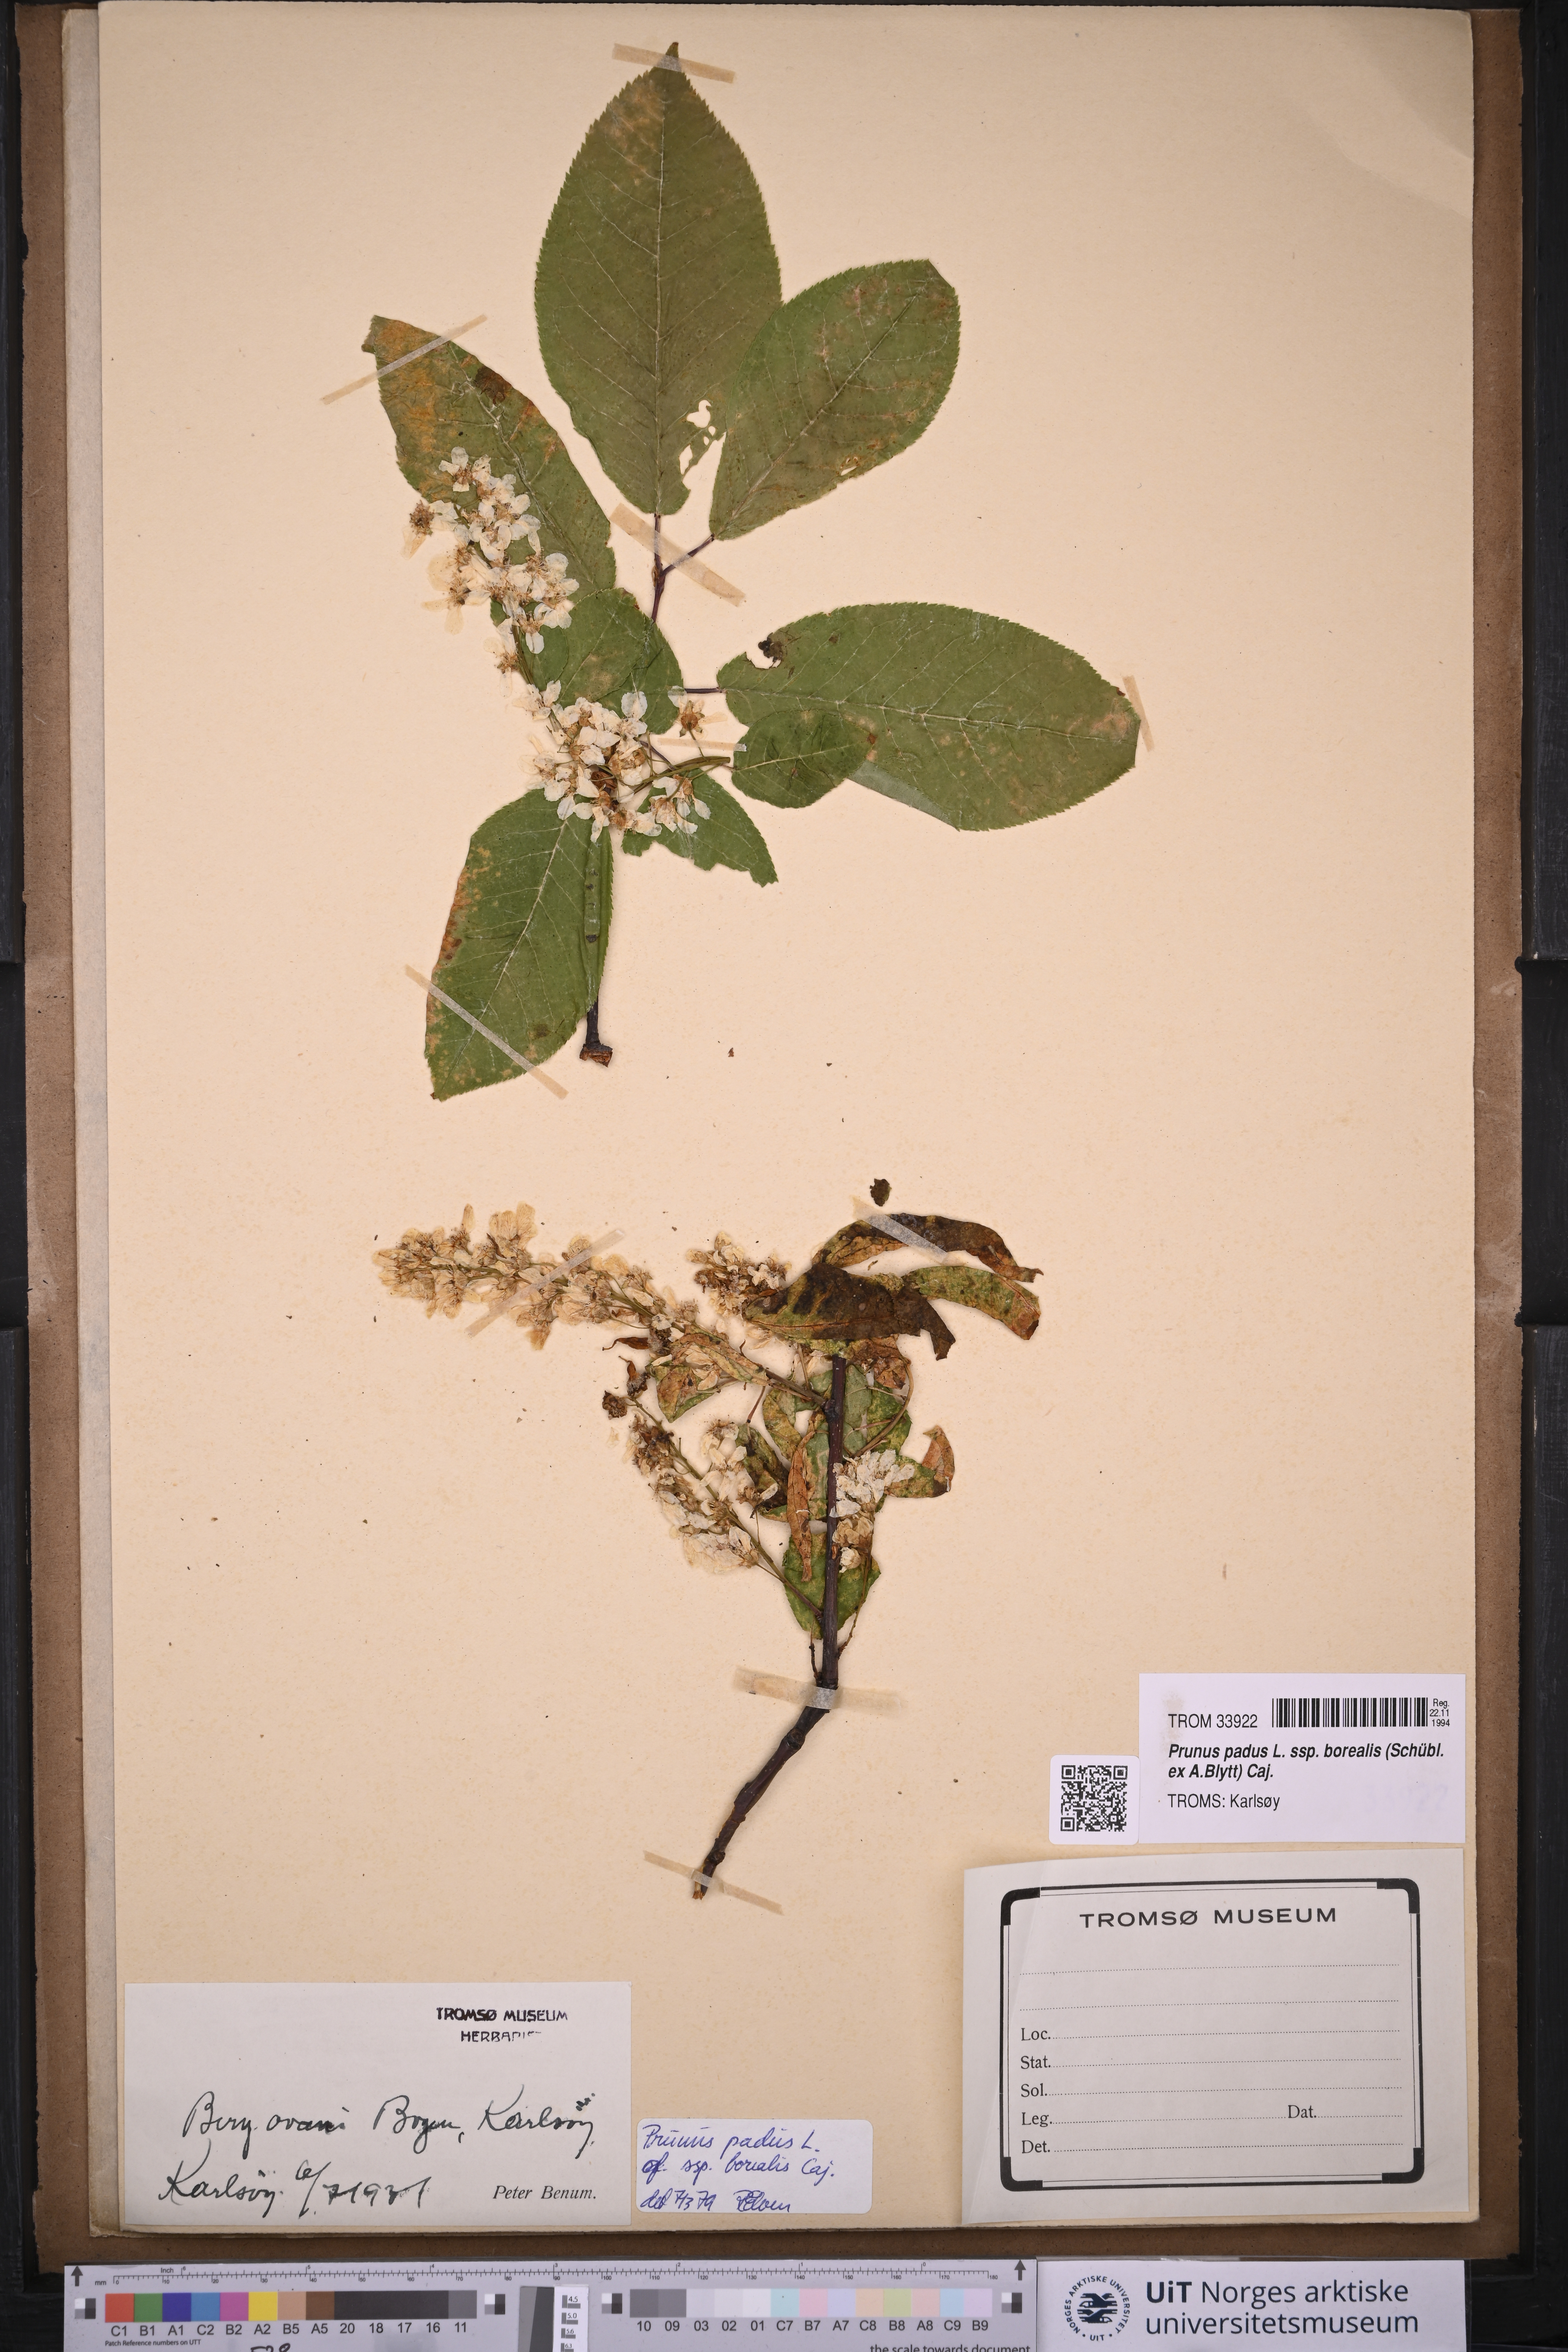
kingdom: Plantae
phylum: Tracheophyta
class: Magnoliopsida
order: Rosales
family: Rosaceae
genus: Prunus
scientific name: Prunus padus
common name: Bird cherry
